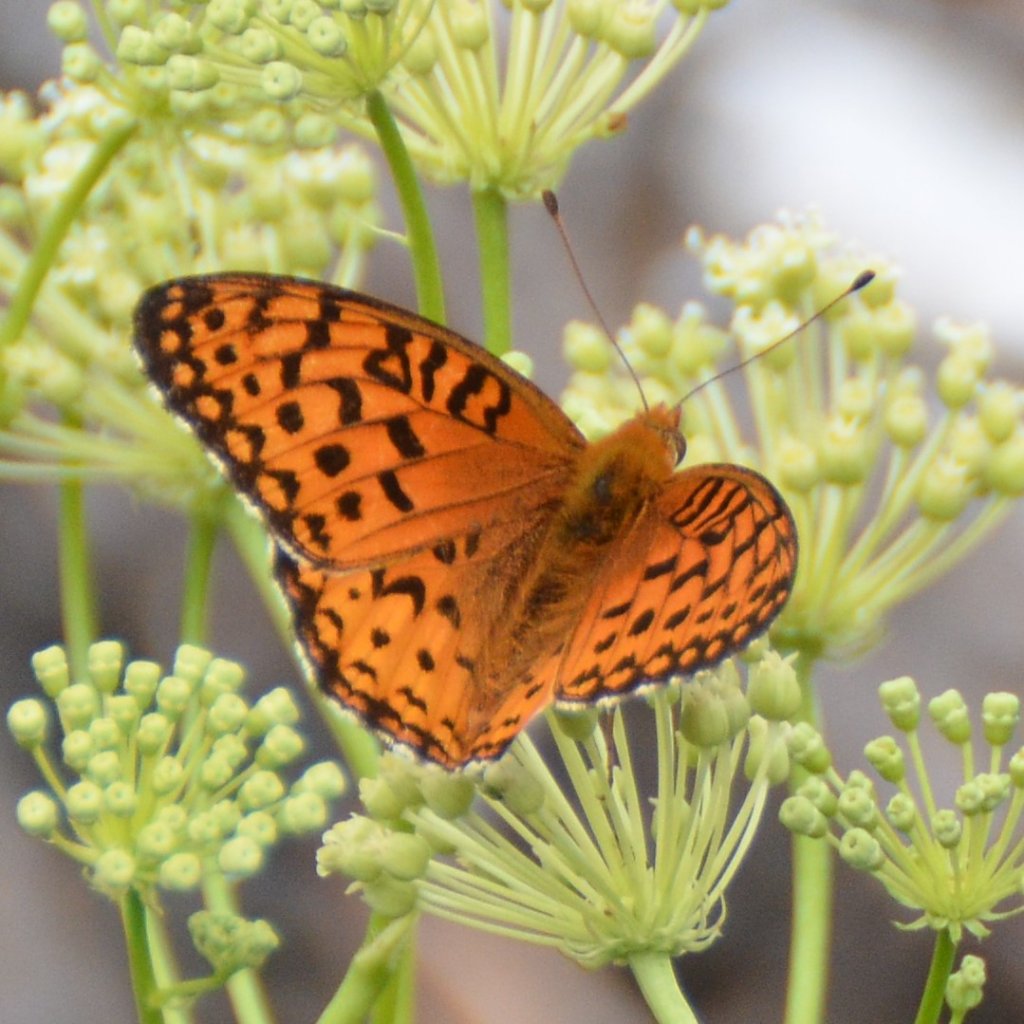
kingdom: Animalia
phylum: Arthropoda
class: Insecta
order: Lepidoptera
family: Nymphalidae
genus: Speyeria
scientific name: Speyeria aphrodite
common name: Aphrodite Fritillary
